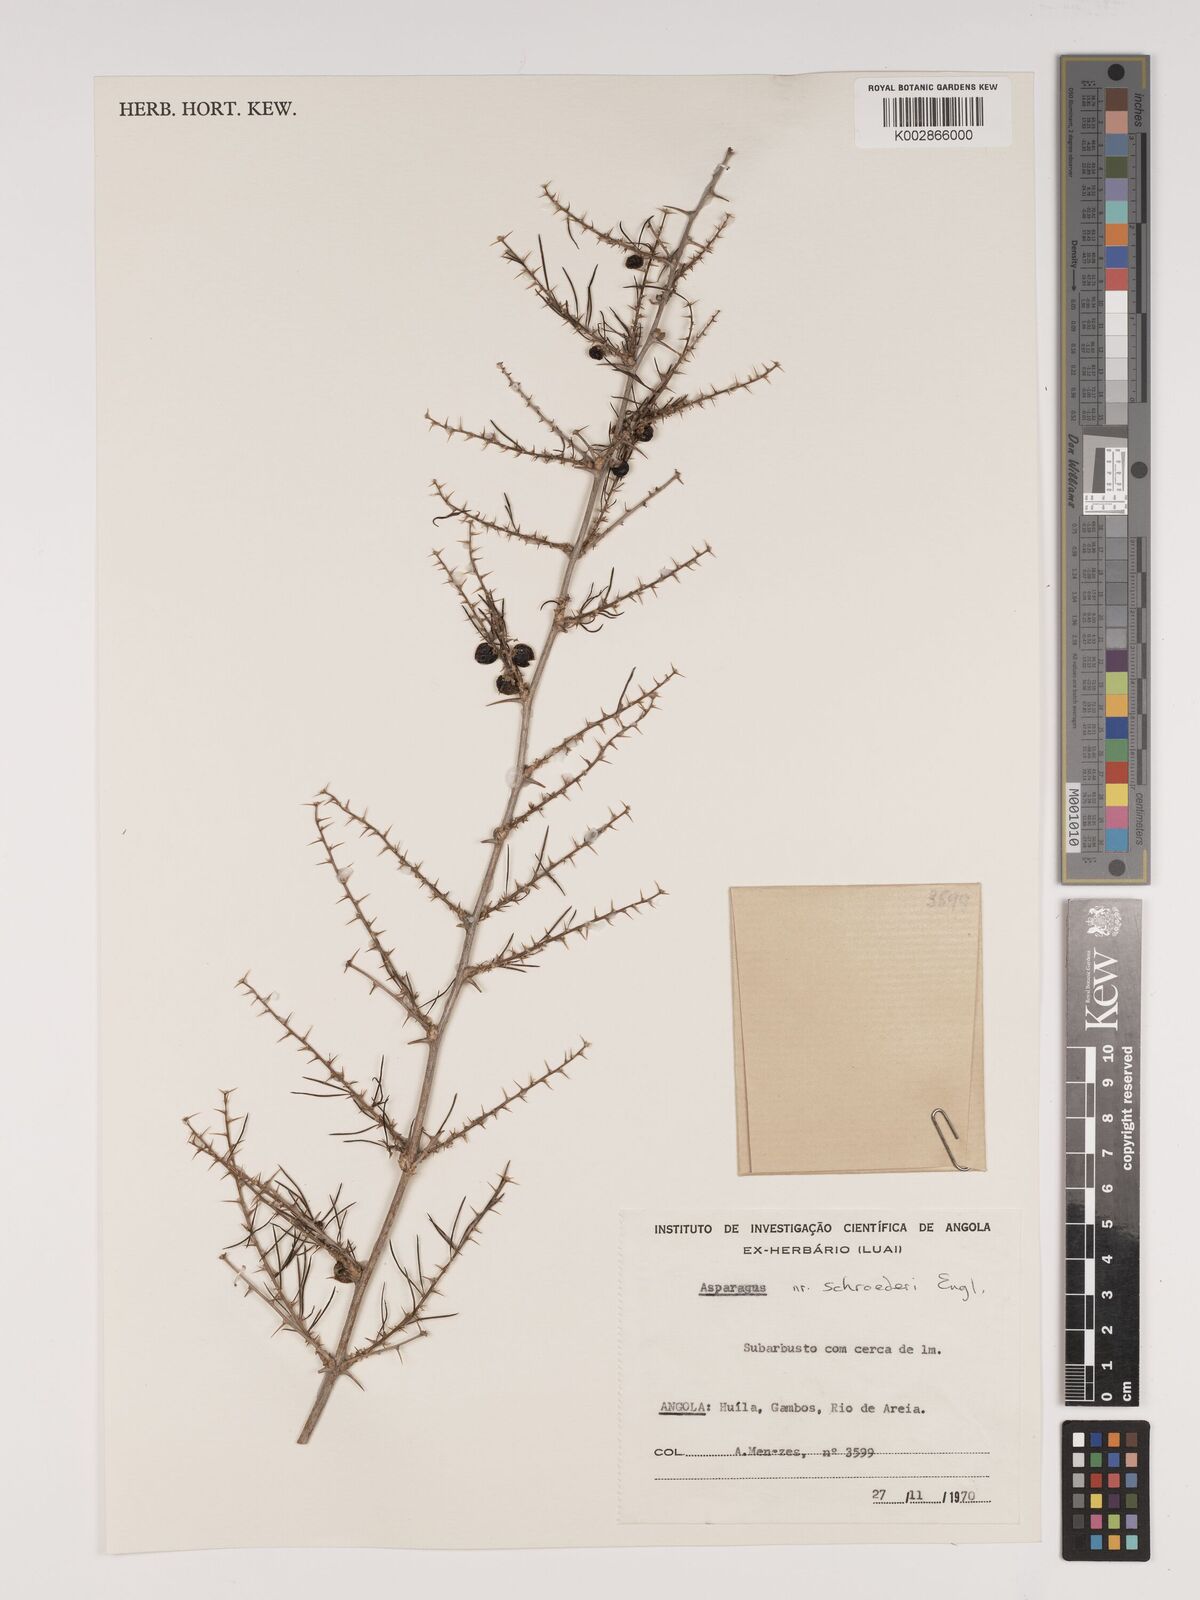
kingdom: Plantae
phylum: Tracheophyta
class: Liliopsida
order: Asparagales
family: Asparagaceae
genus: Asparagus
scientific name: Asparagus schroederi
